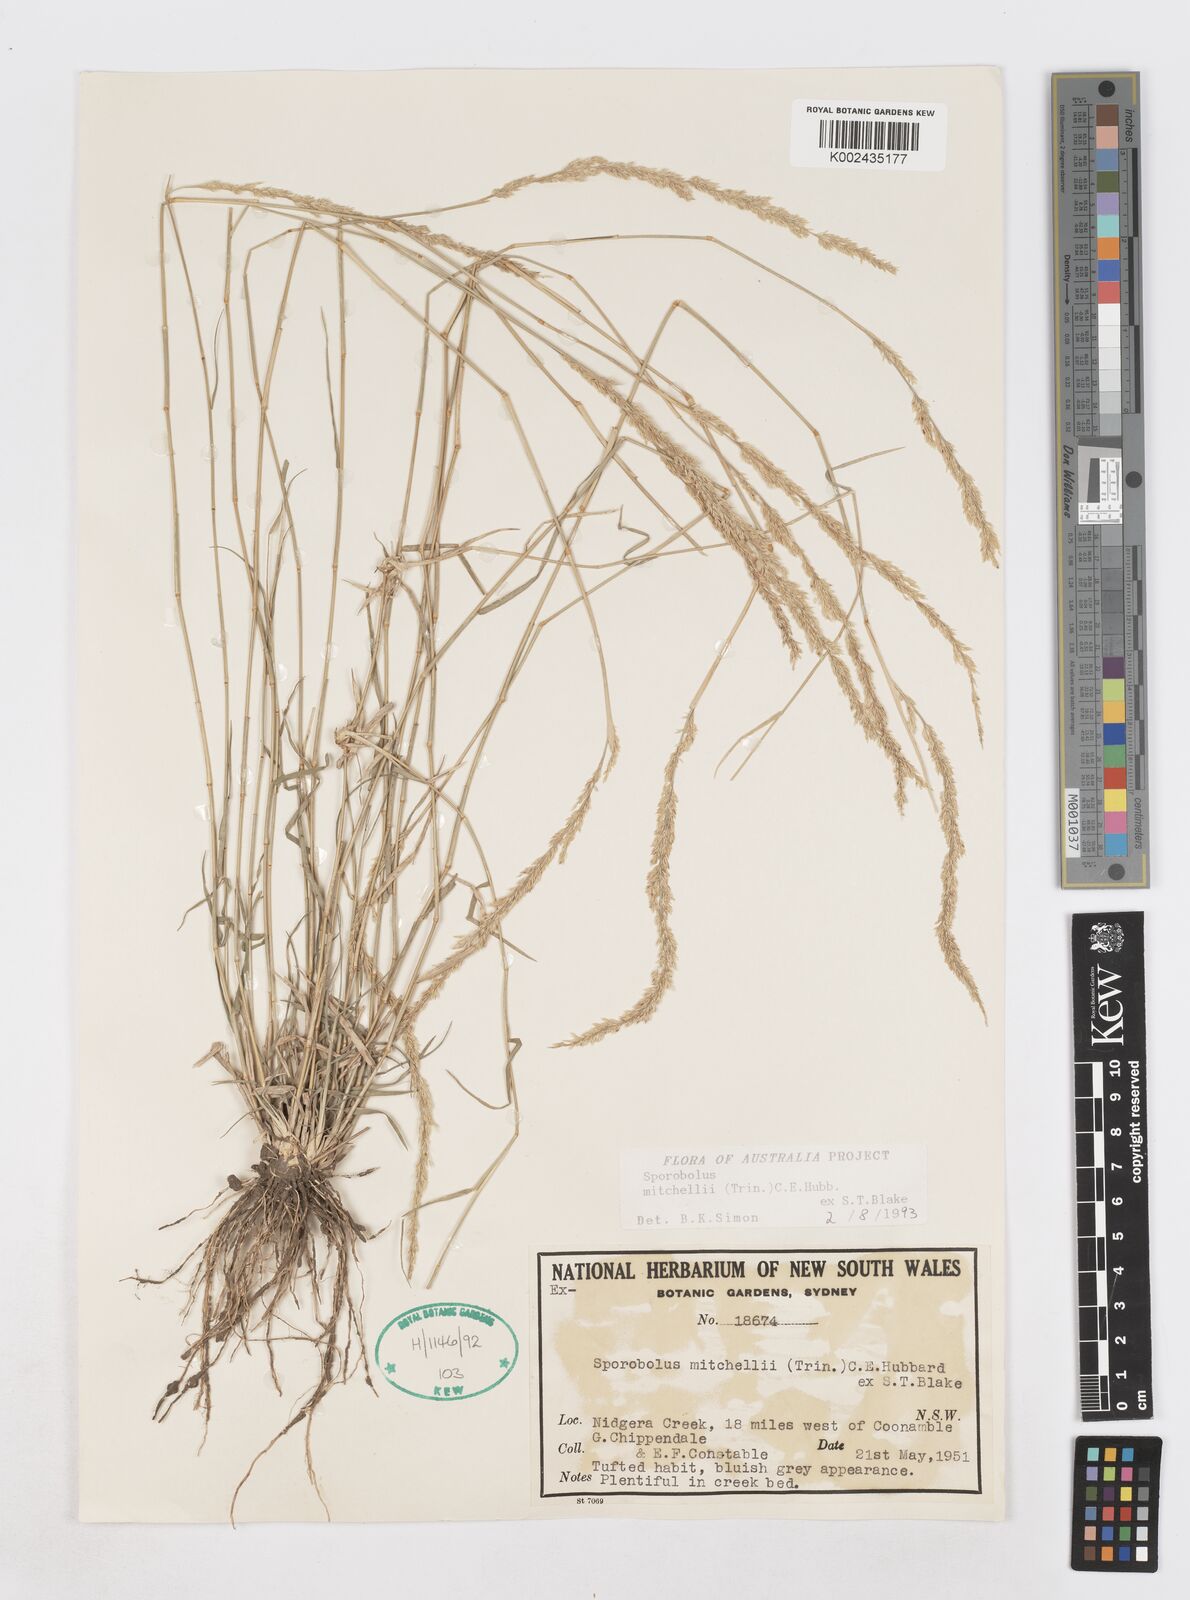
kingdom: Plantae
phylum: Tracheophyta
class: Liliopsida
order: Poales
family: Poaceae
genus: Sporobolus
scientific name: Sporobolus mitchellii
